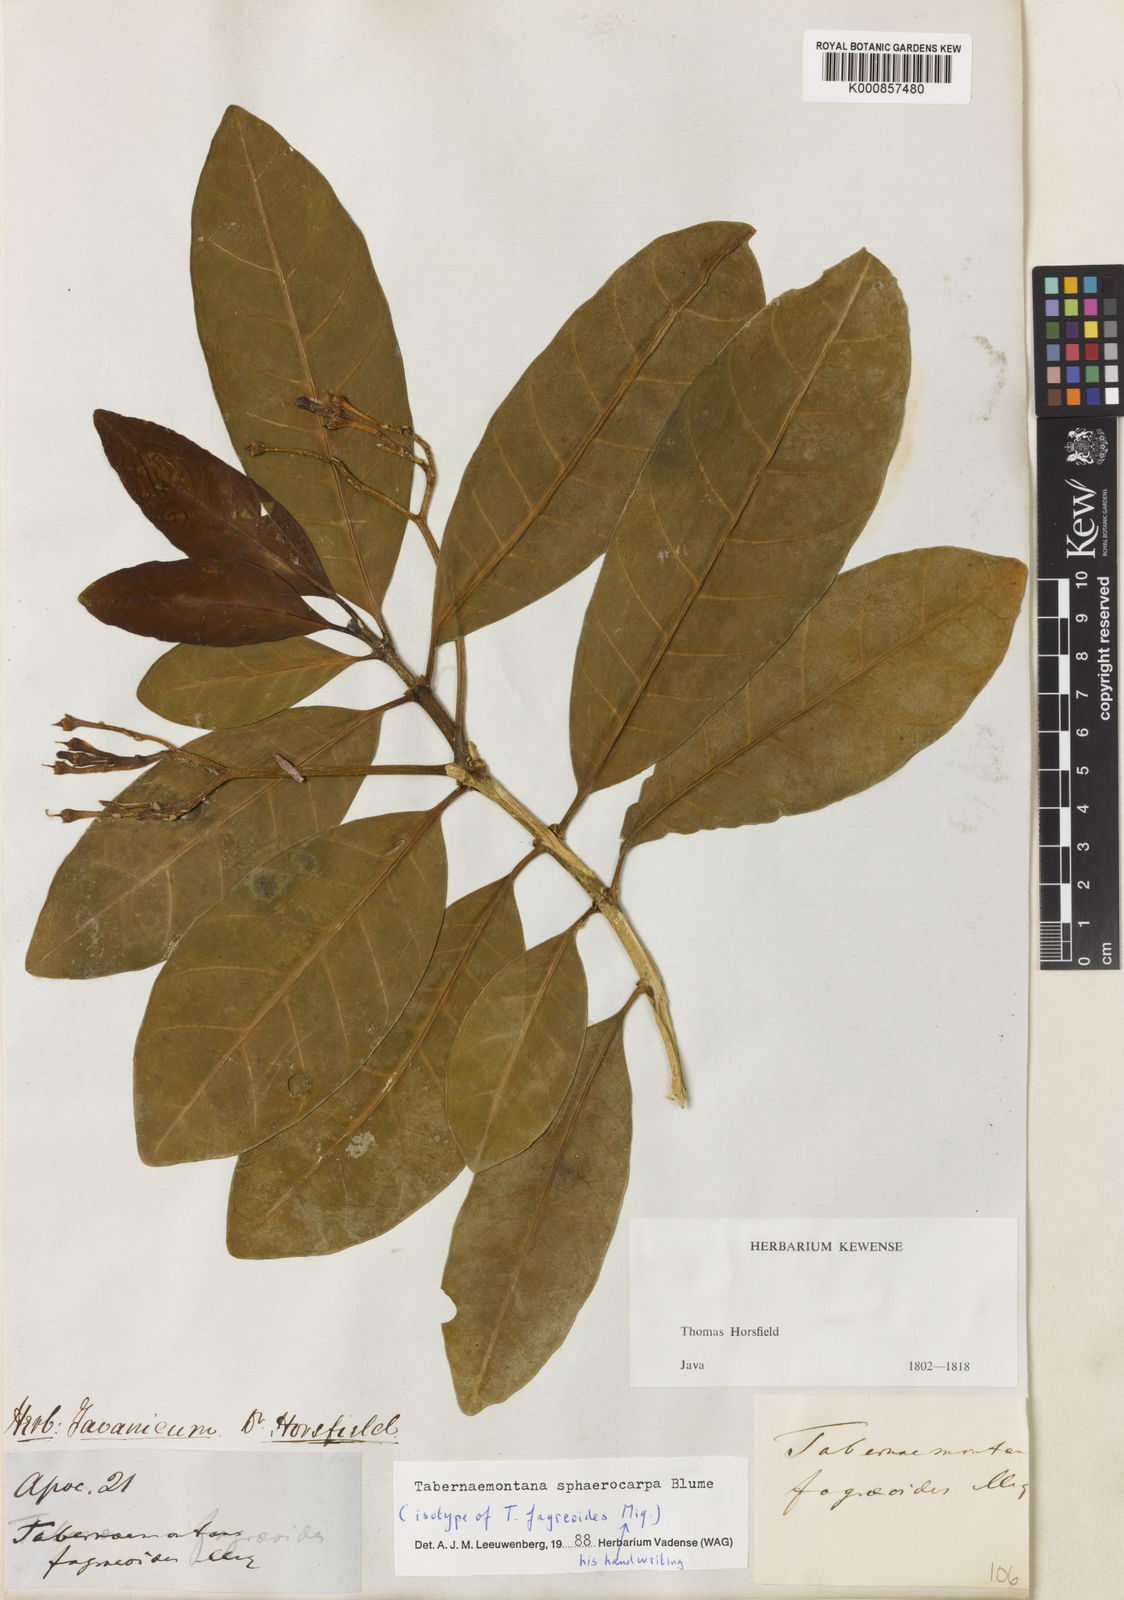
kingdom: Plantae
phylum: Tracheophyta
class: Magnoliopsida
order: Gentianales
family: Apocynaceae
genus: Tabernaemontana
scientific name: Tabernaemontana sphaerocarpa
